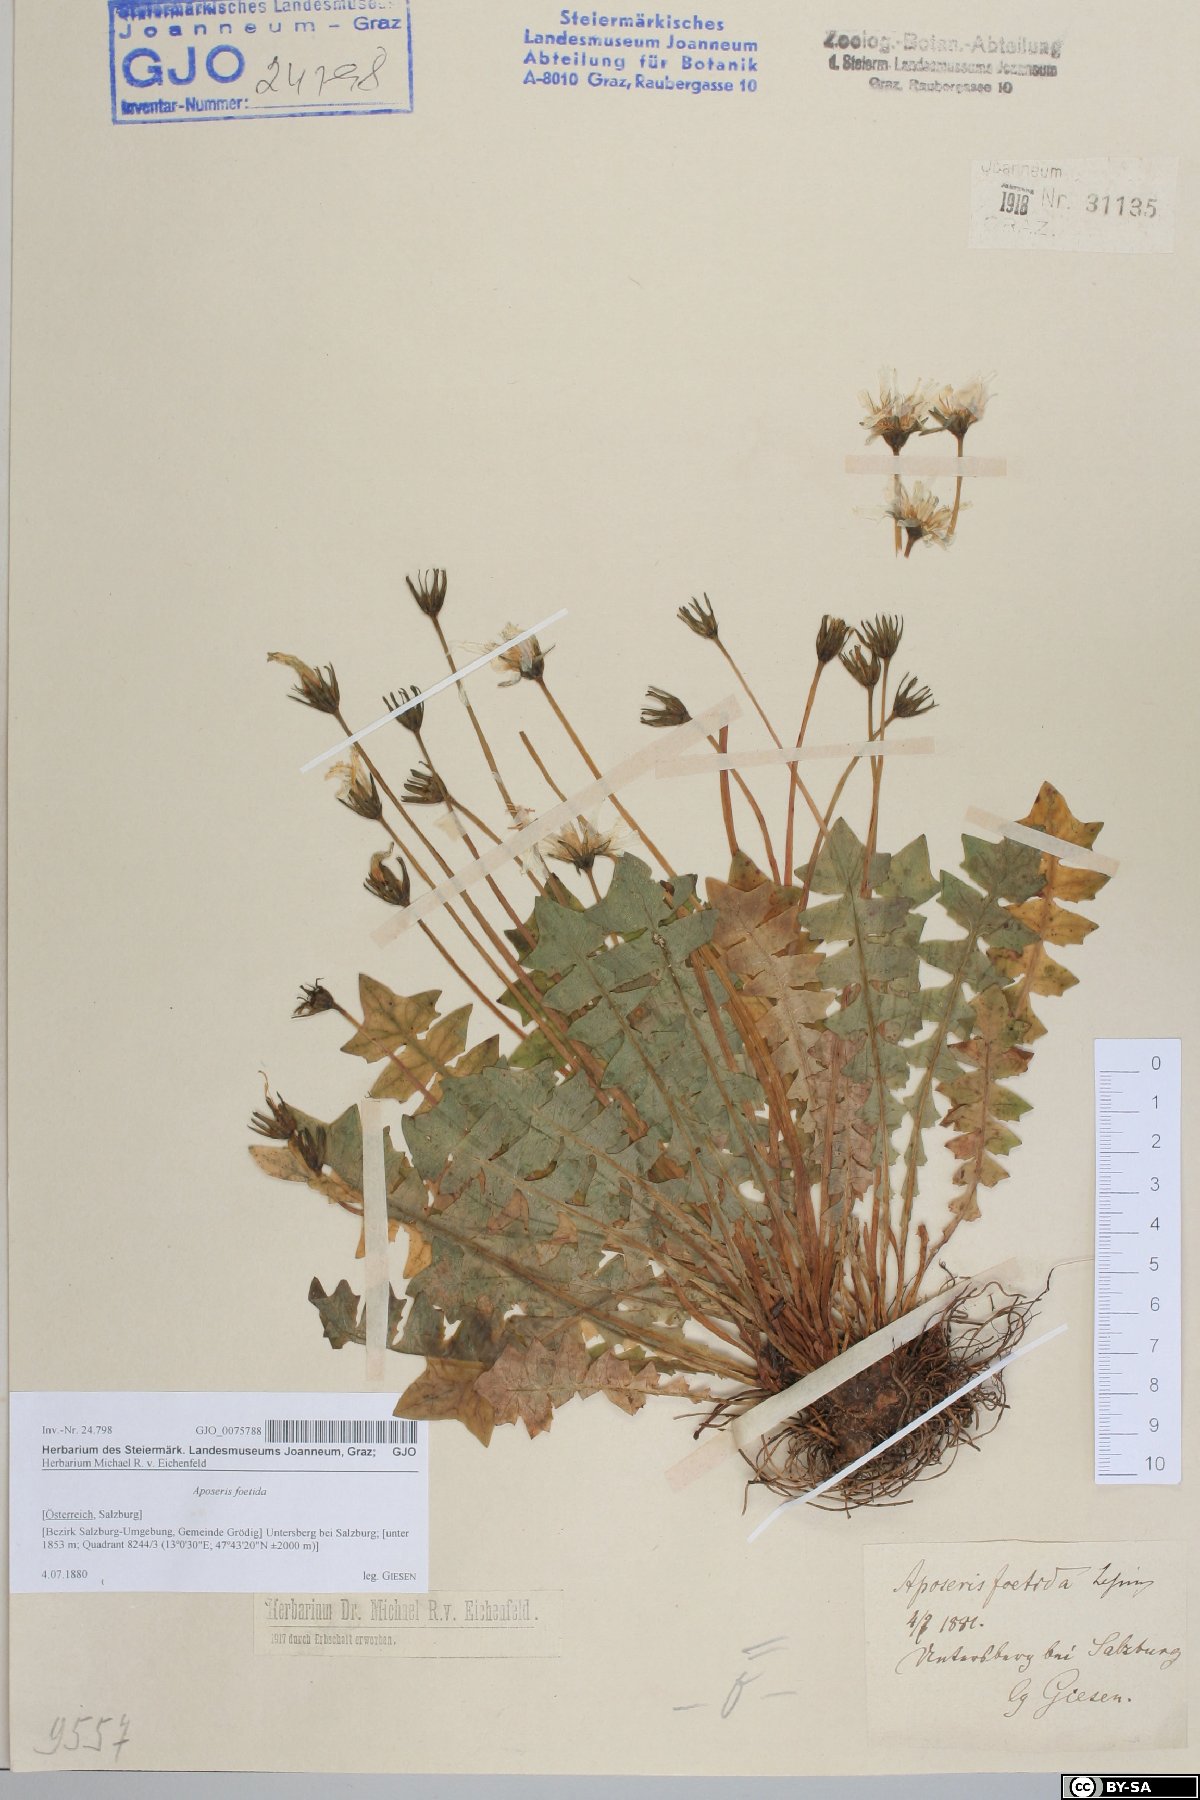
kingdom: Plantae
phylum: Tracheophyta
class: Magnoliopsida
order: Asterales
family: Asteraceae
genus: Aposeris
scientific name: Aposeris foetida
